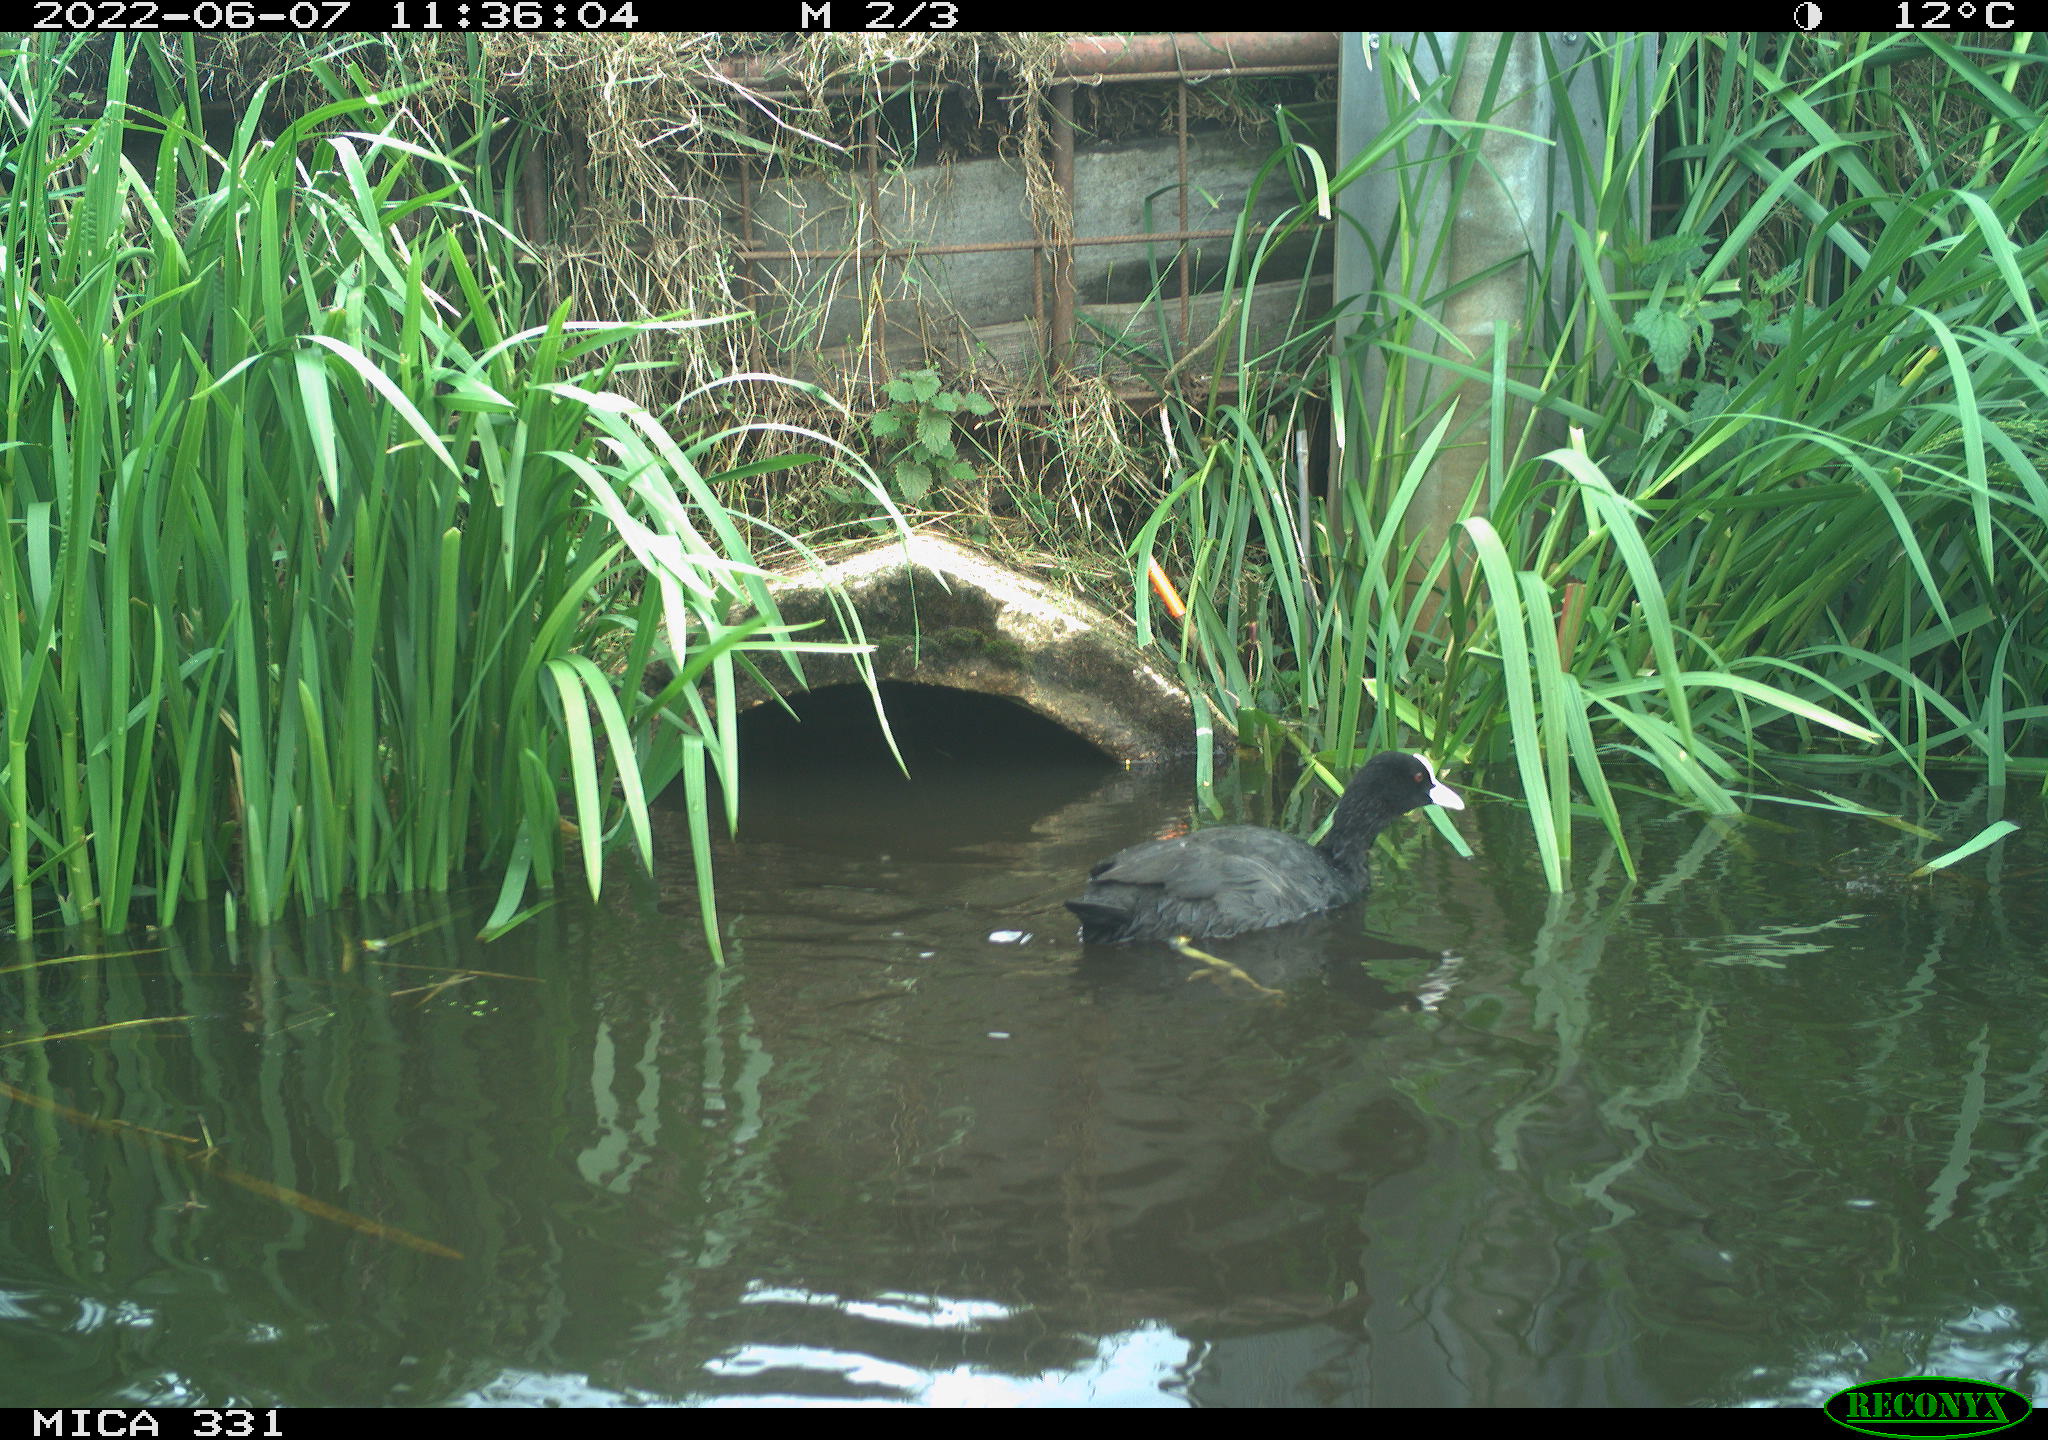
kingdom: Animalia
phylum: Chordata
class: Aves
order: Gruiformes
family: Rallidae
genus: Gallinula
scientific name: Gallinula chloropus
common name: Common moorhen
